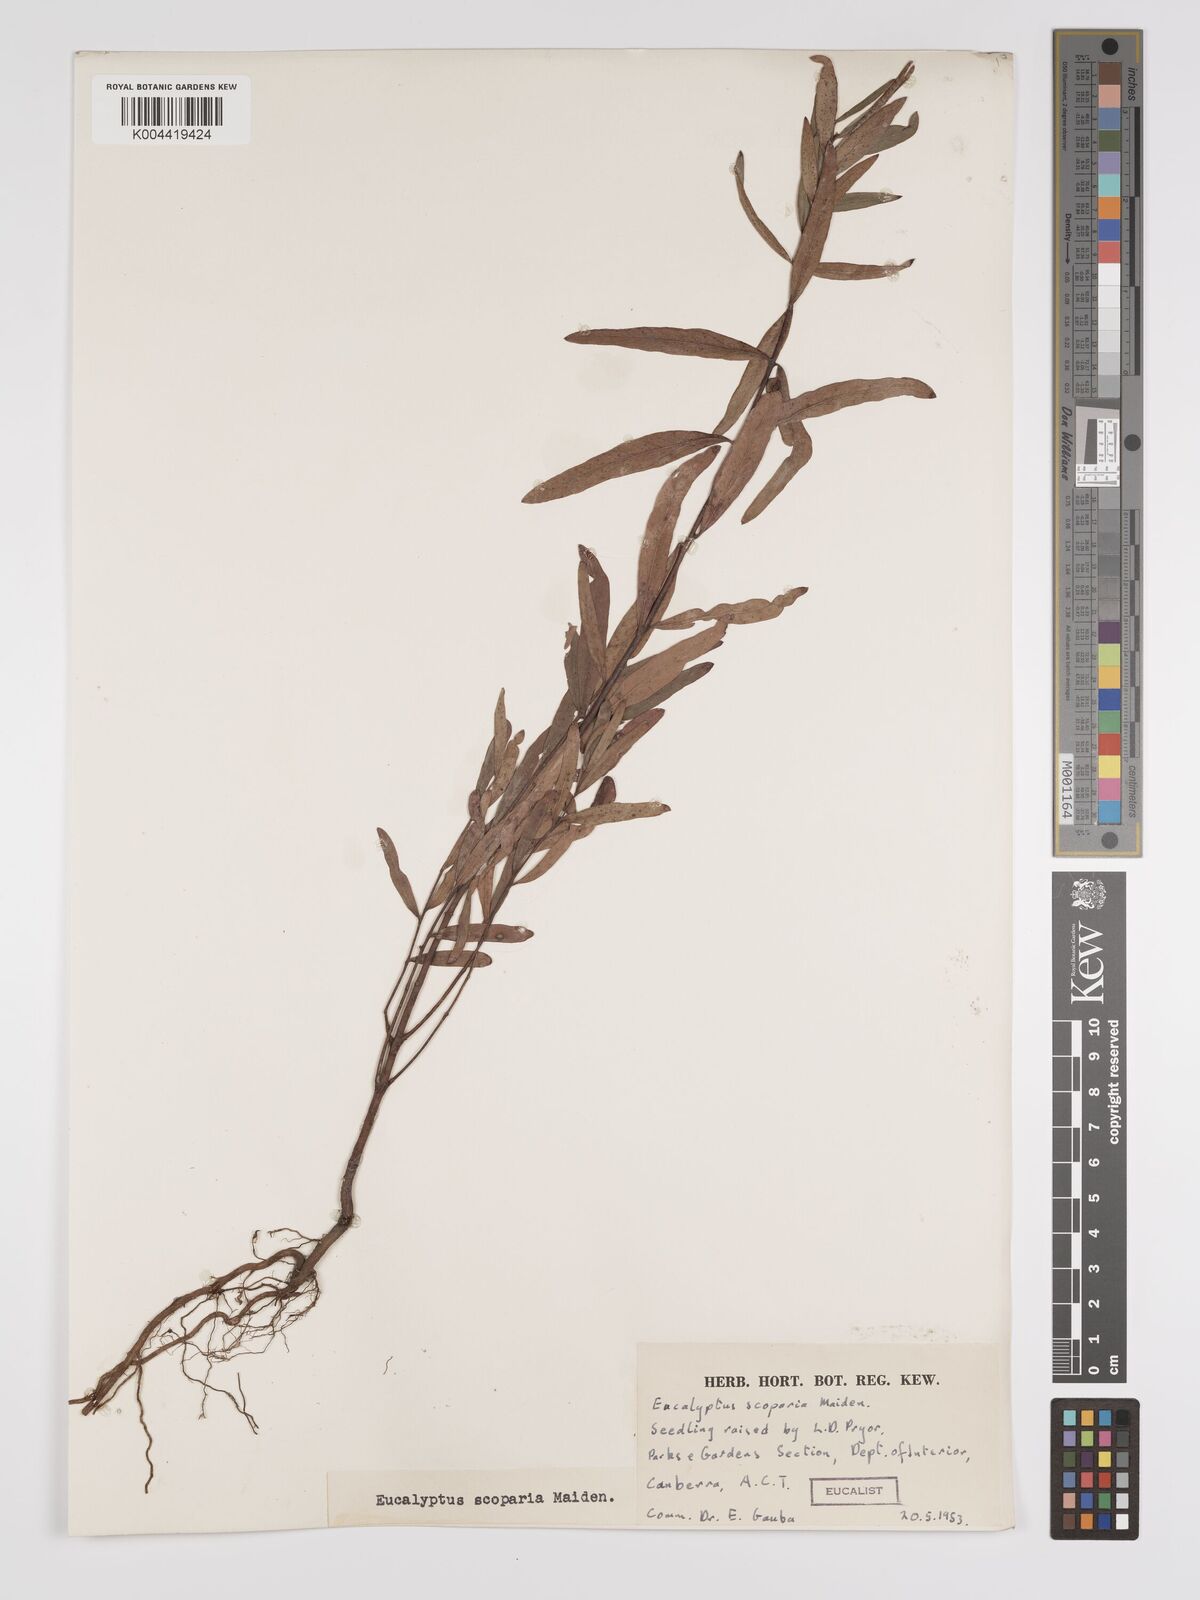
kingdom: Plantae
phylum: Tracheophyta
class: Magnoliopsida
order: Myrtales
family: Myrtaceae
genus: Eucalyptus
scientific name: Eucalyptus scoparia
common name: Wallangarra white gum
